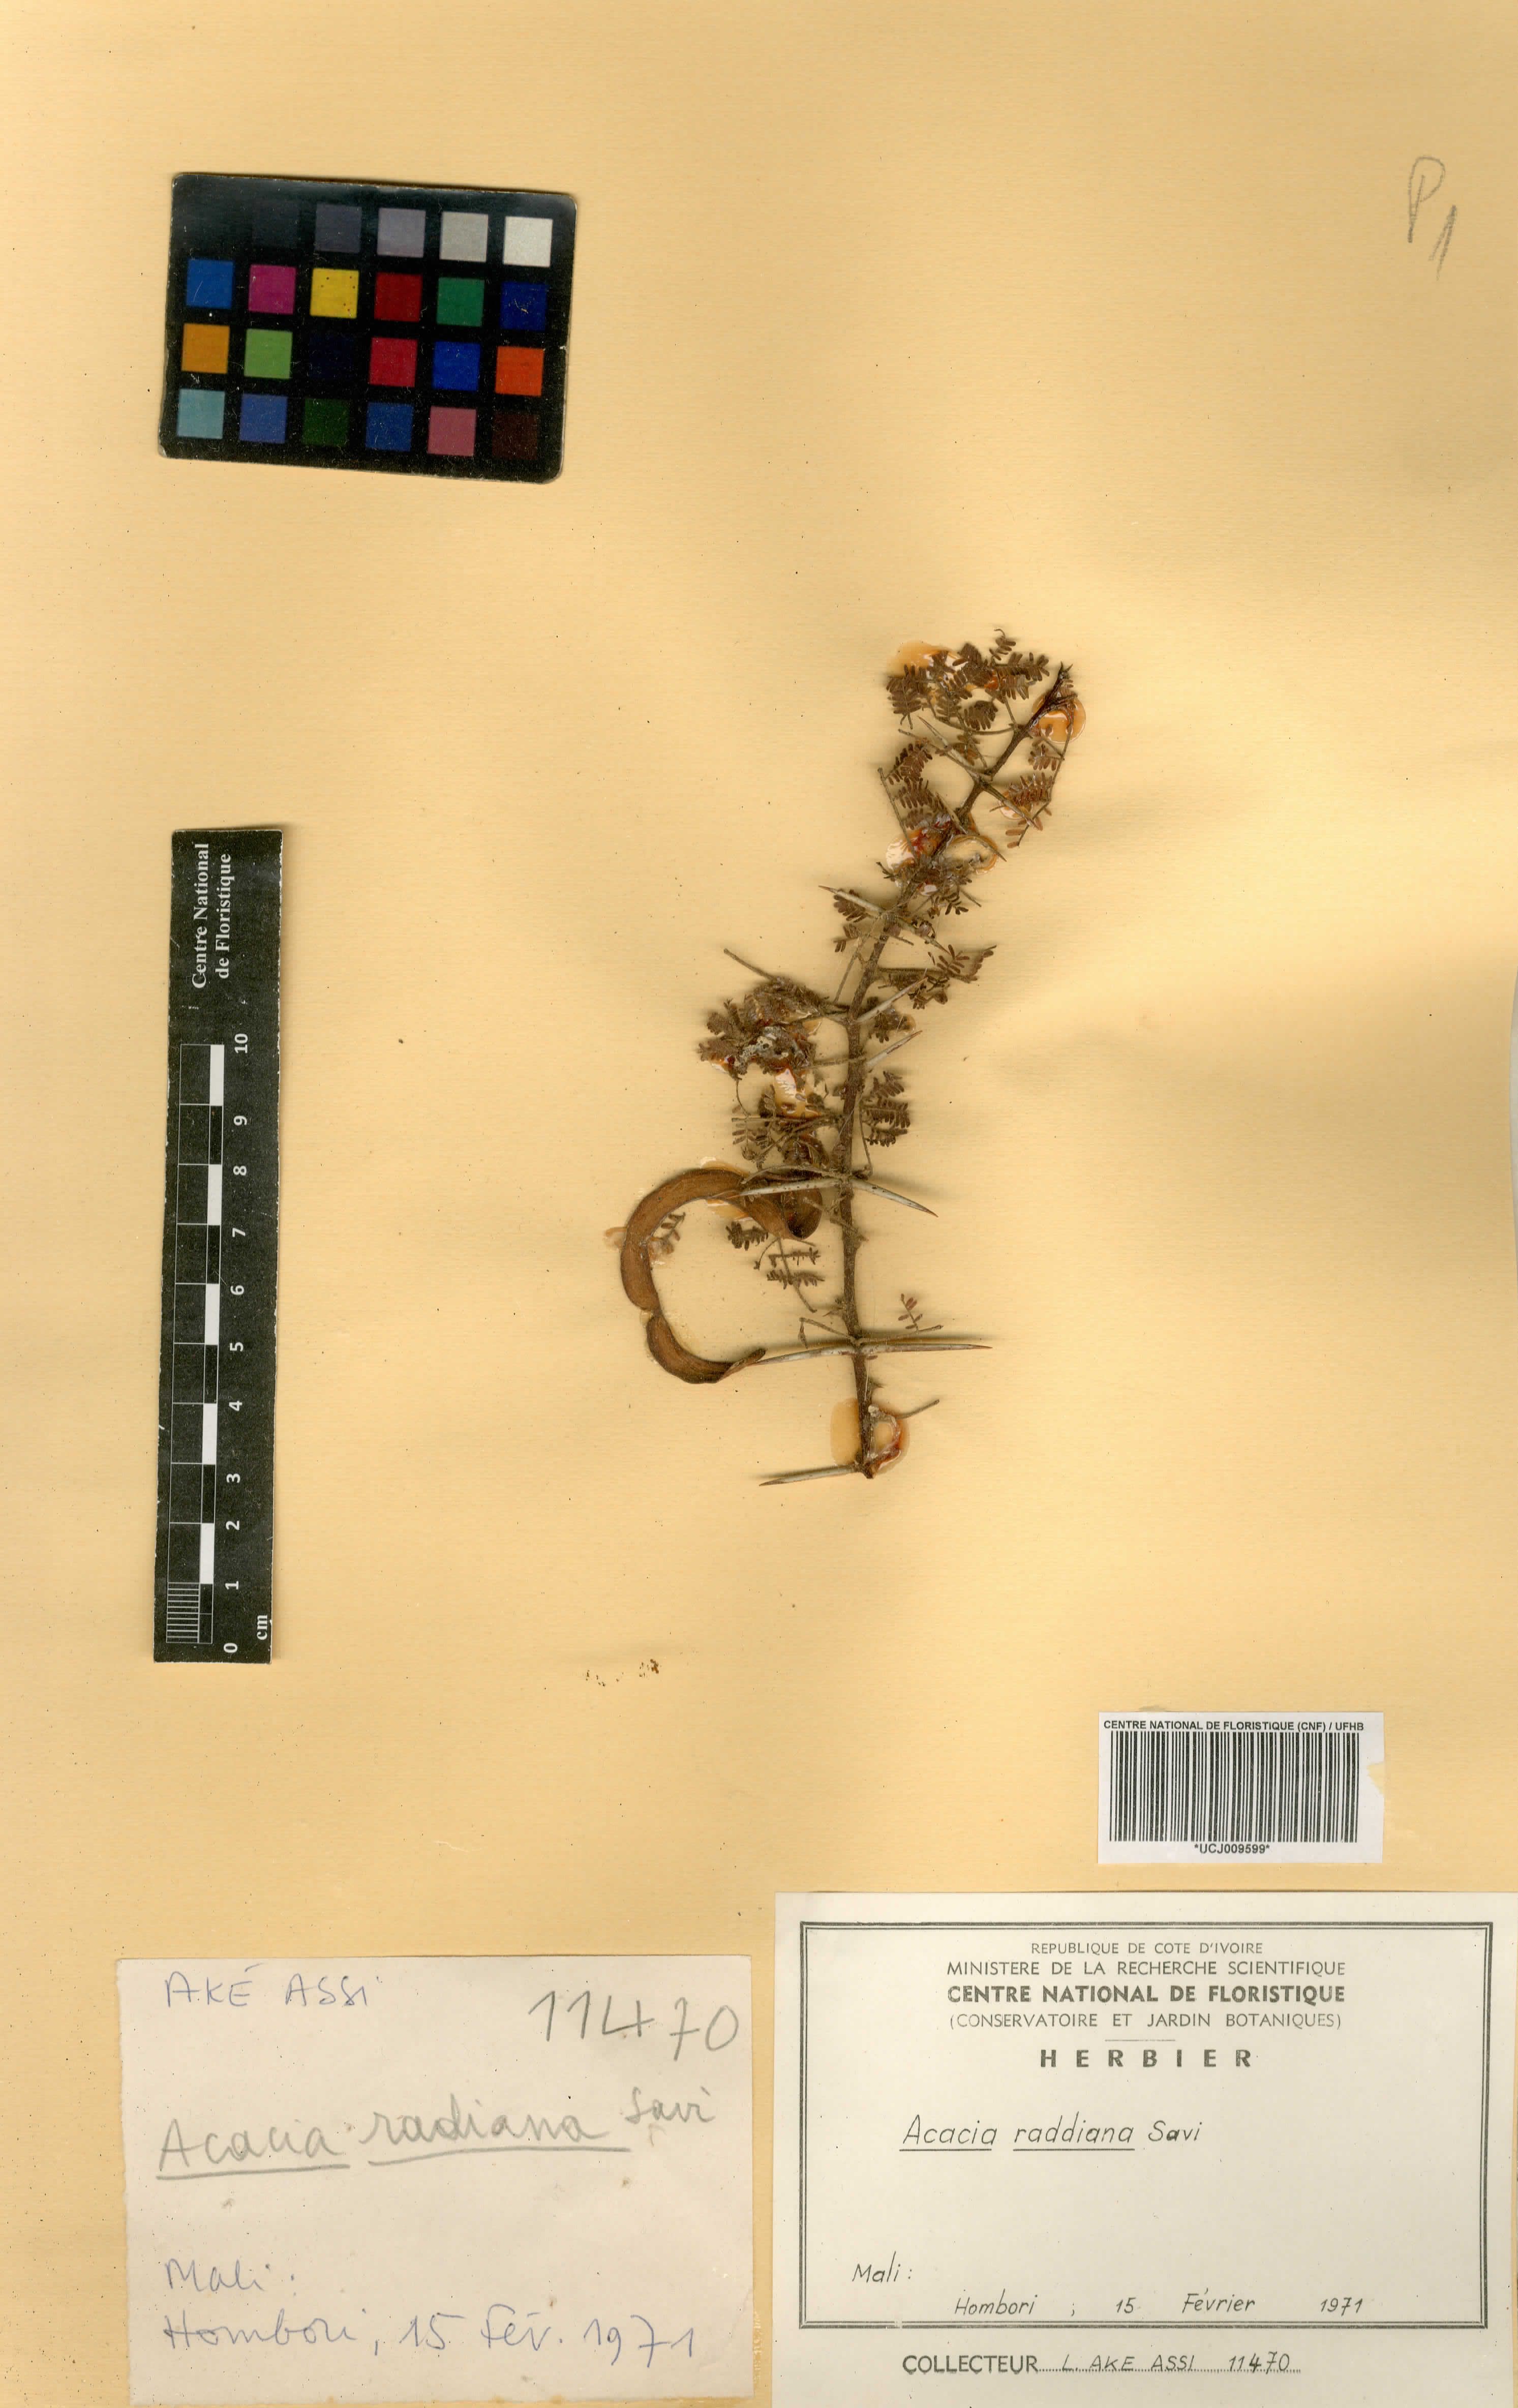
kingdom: Plantae
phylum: Tracheophyta
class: Magnoliopsida
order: Fabales
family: Fabaceae
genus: Vachellia
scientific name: Vachellia tortilis
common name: Umbrella thorn acacia
